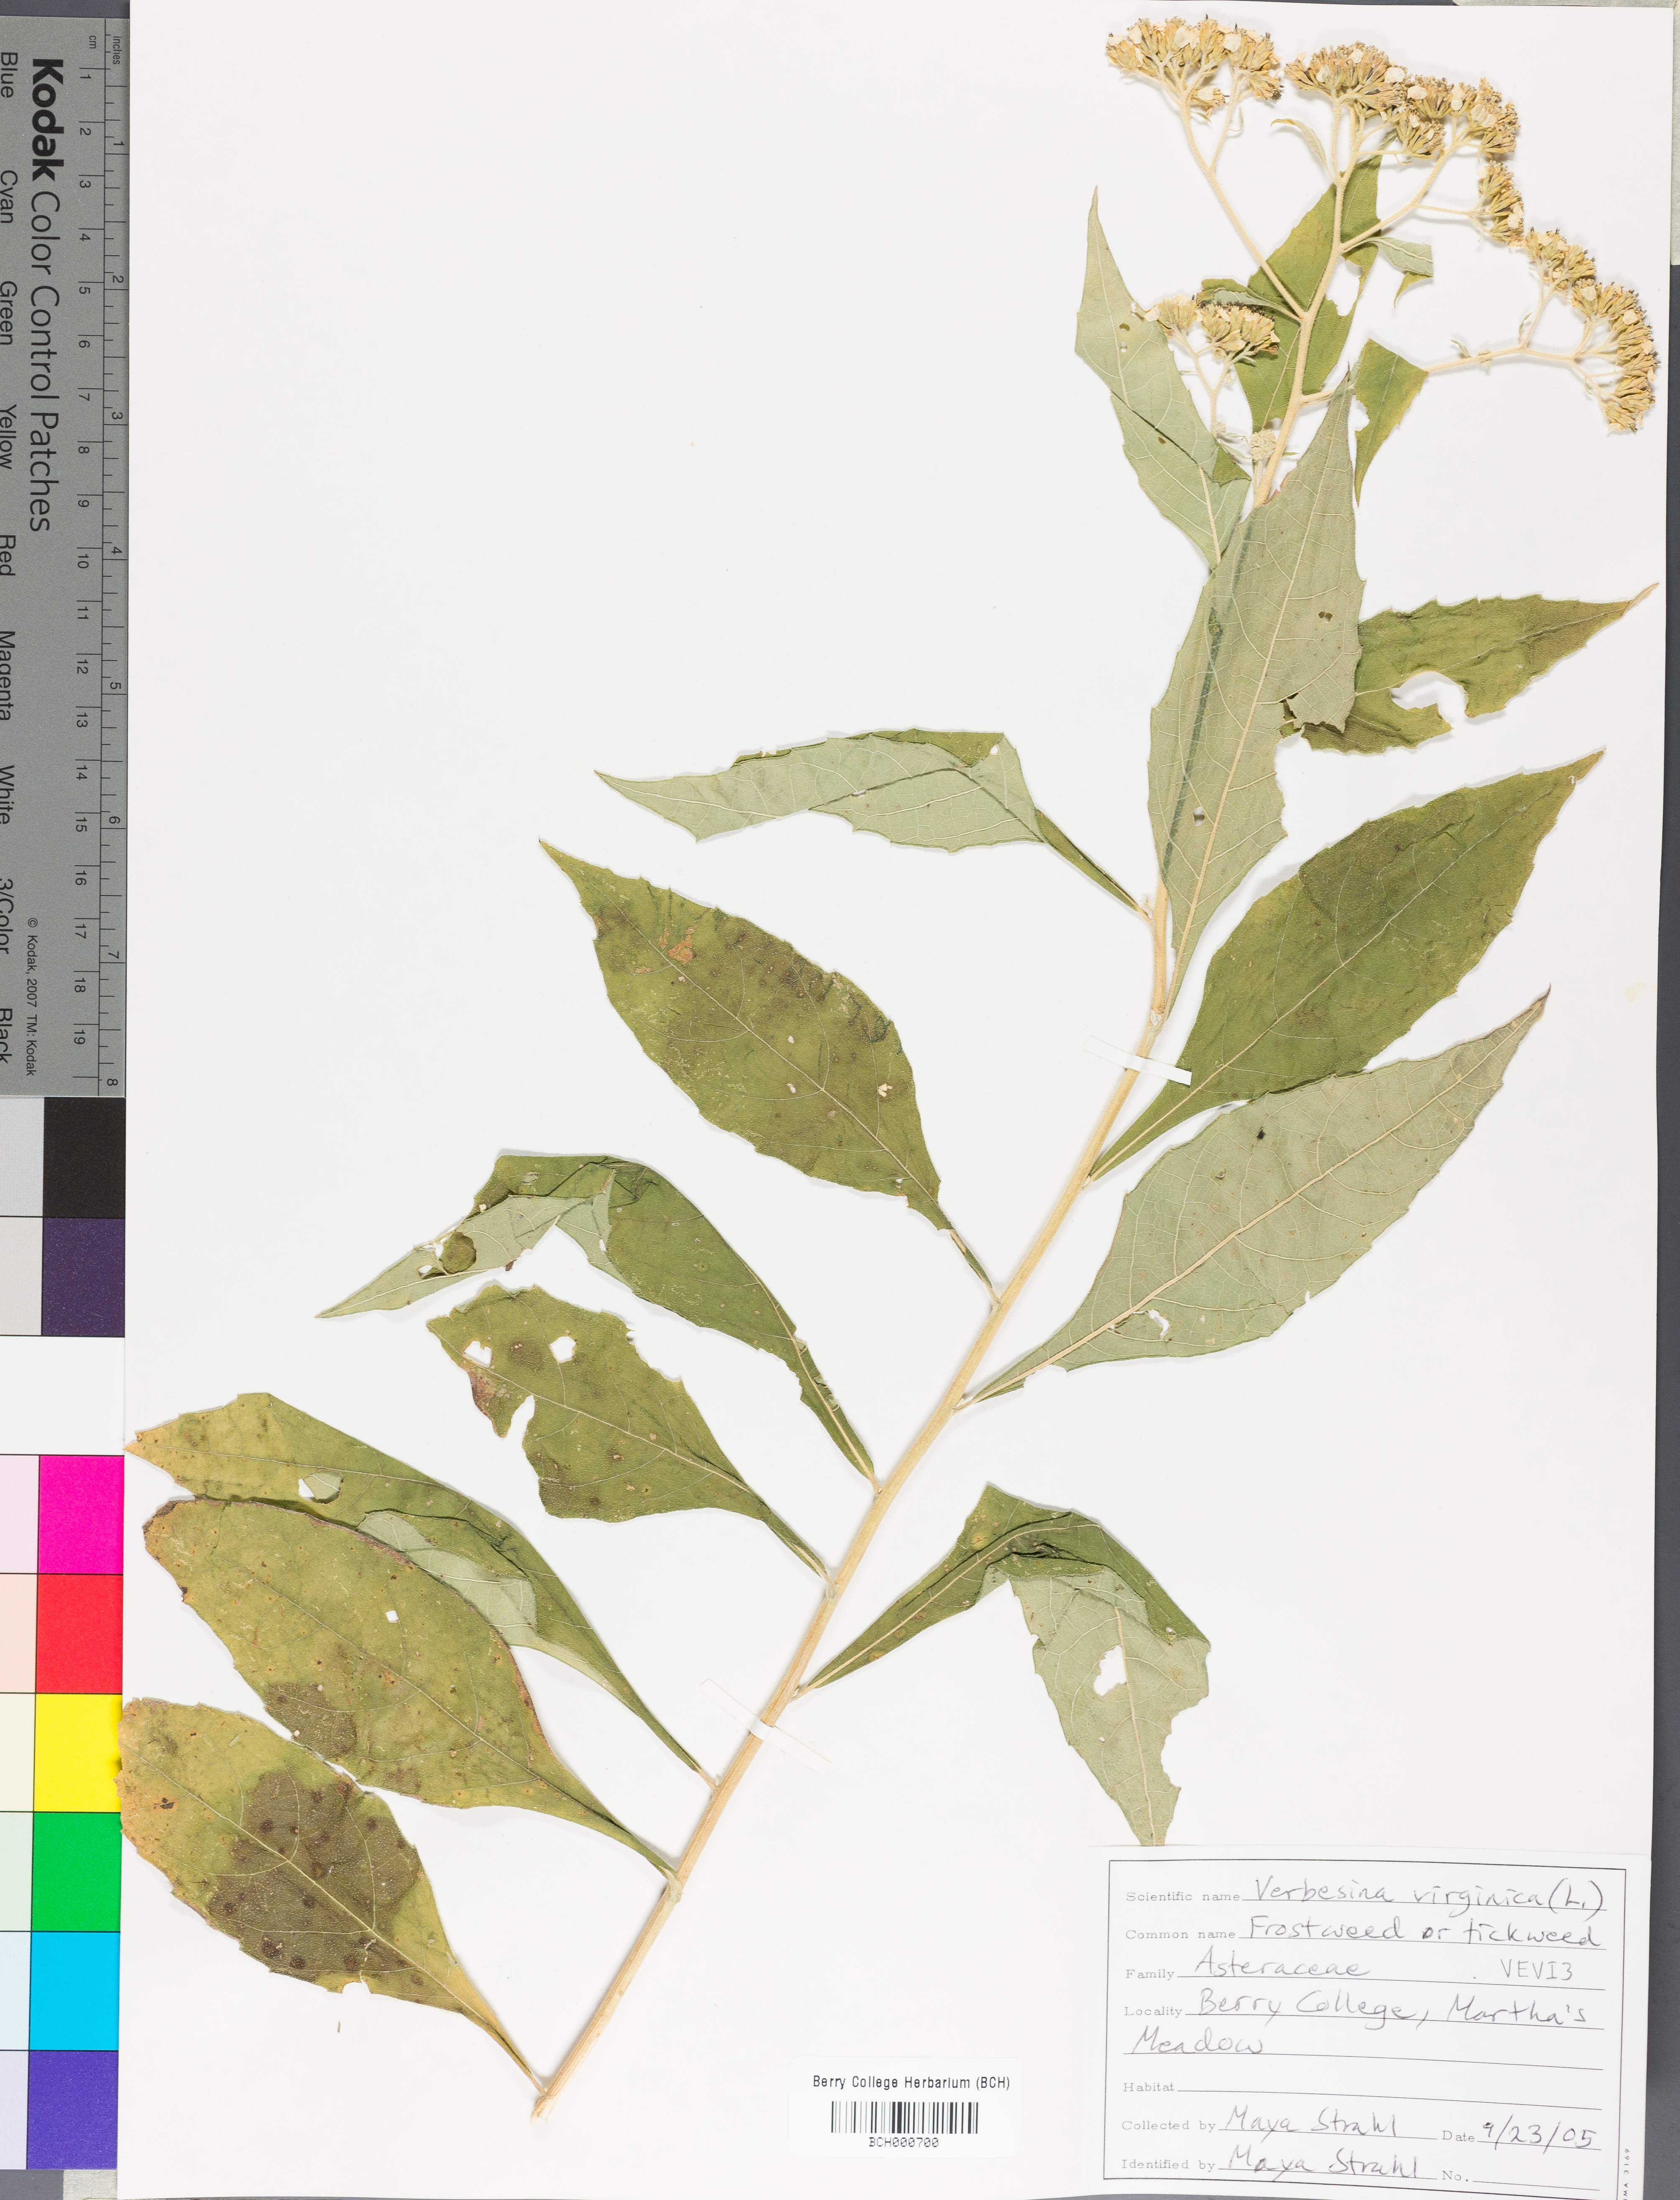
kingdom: Plantae
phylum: Tracheophyta
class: Magnoliopsida
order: Asterales
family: Asteraceae
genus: Verbesina
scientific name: Verbesina virginica
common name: Frostweed
